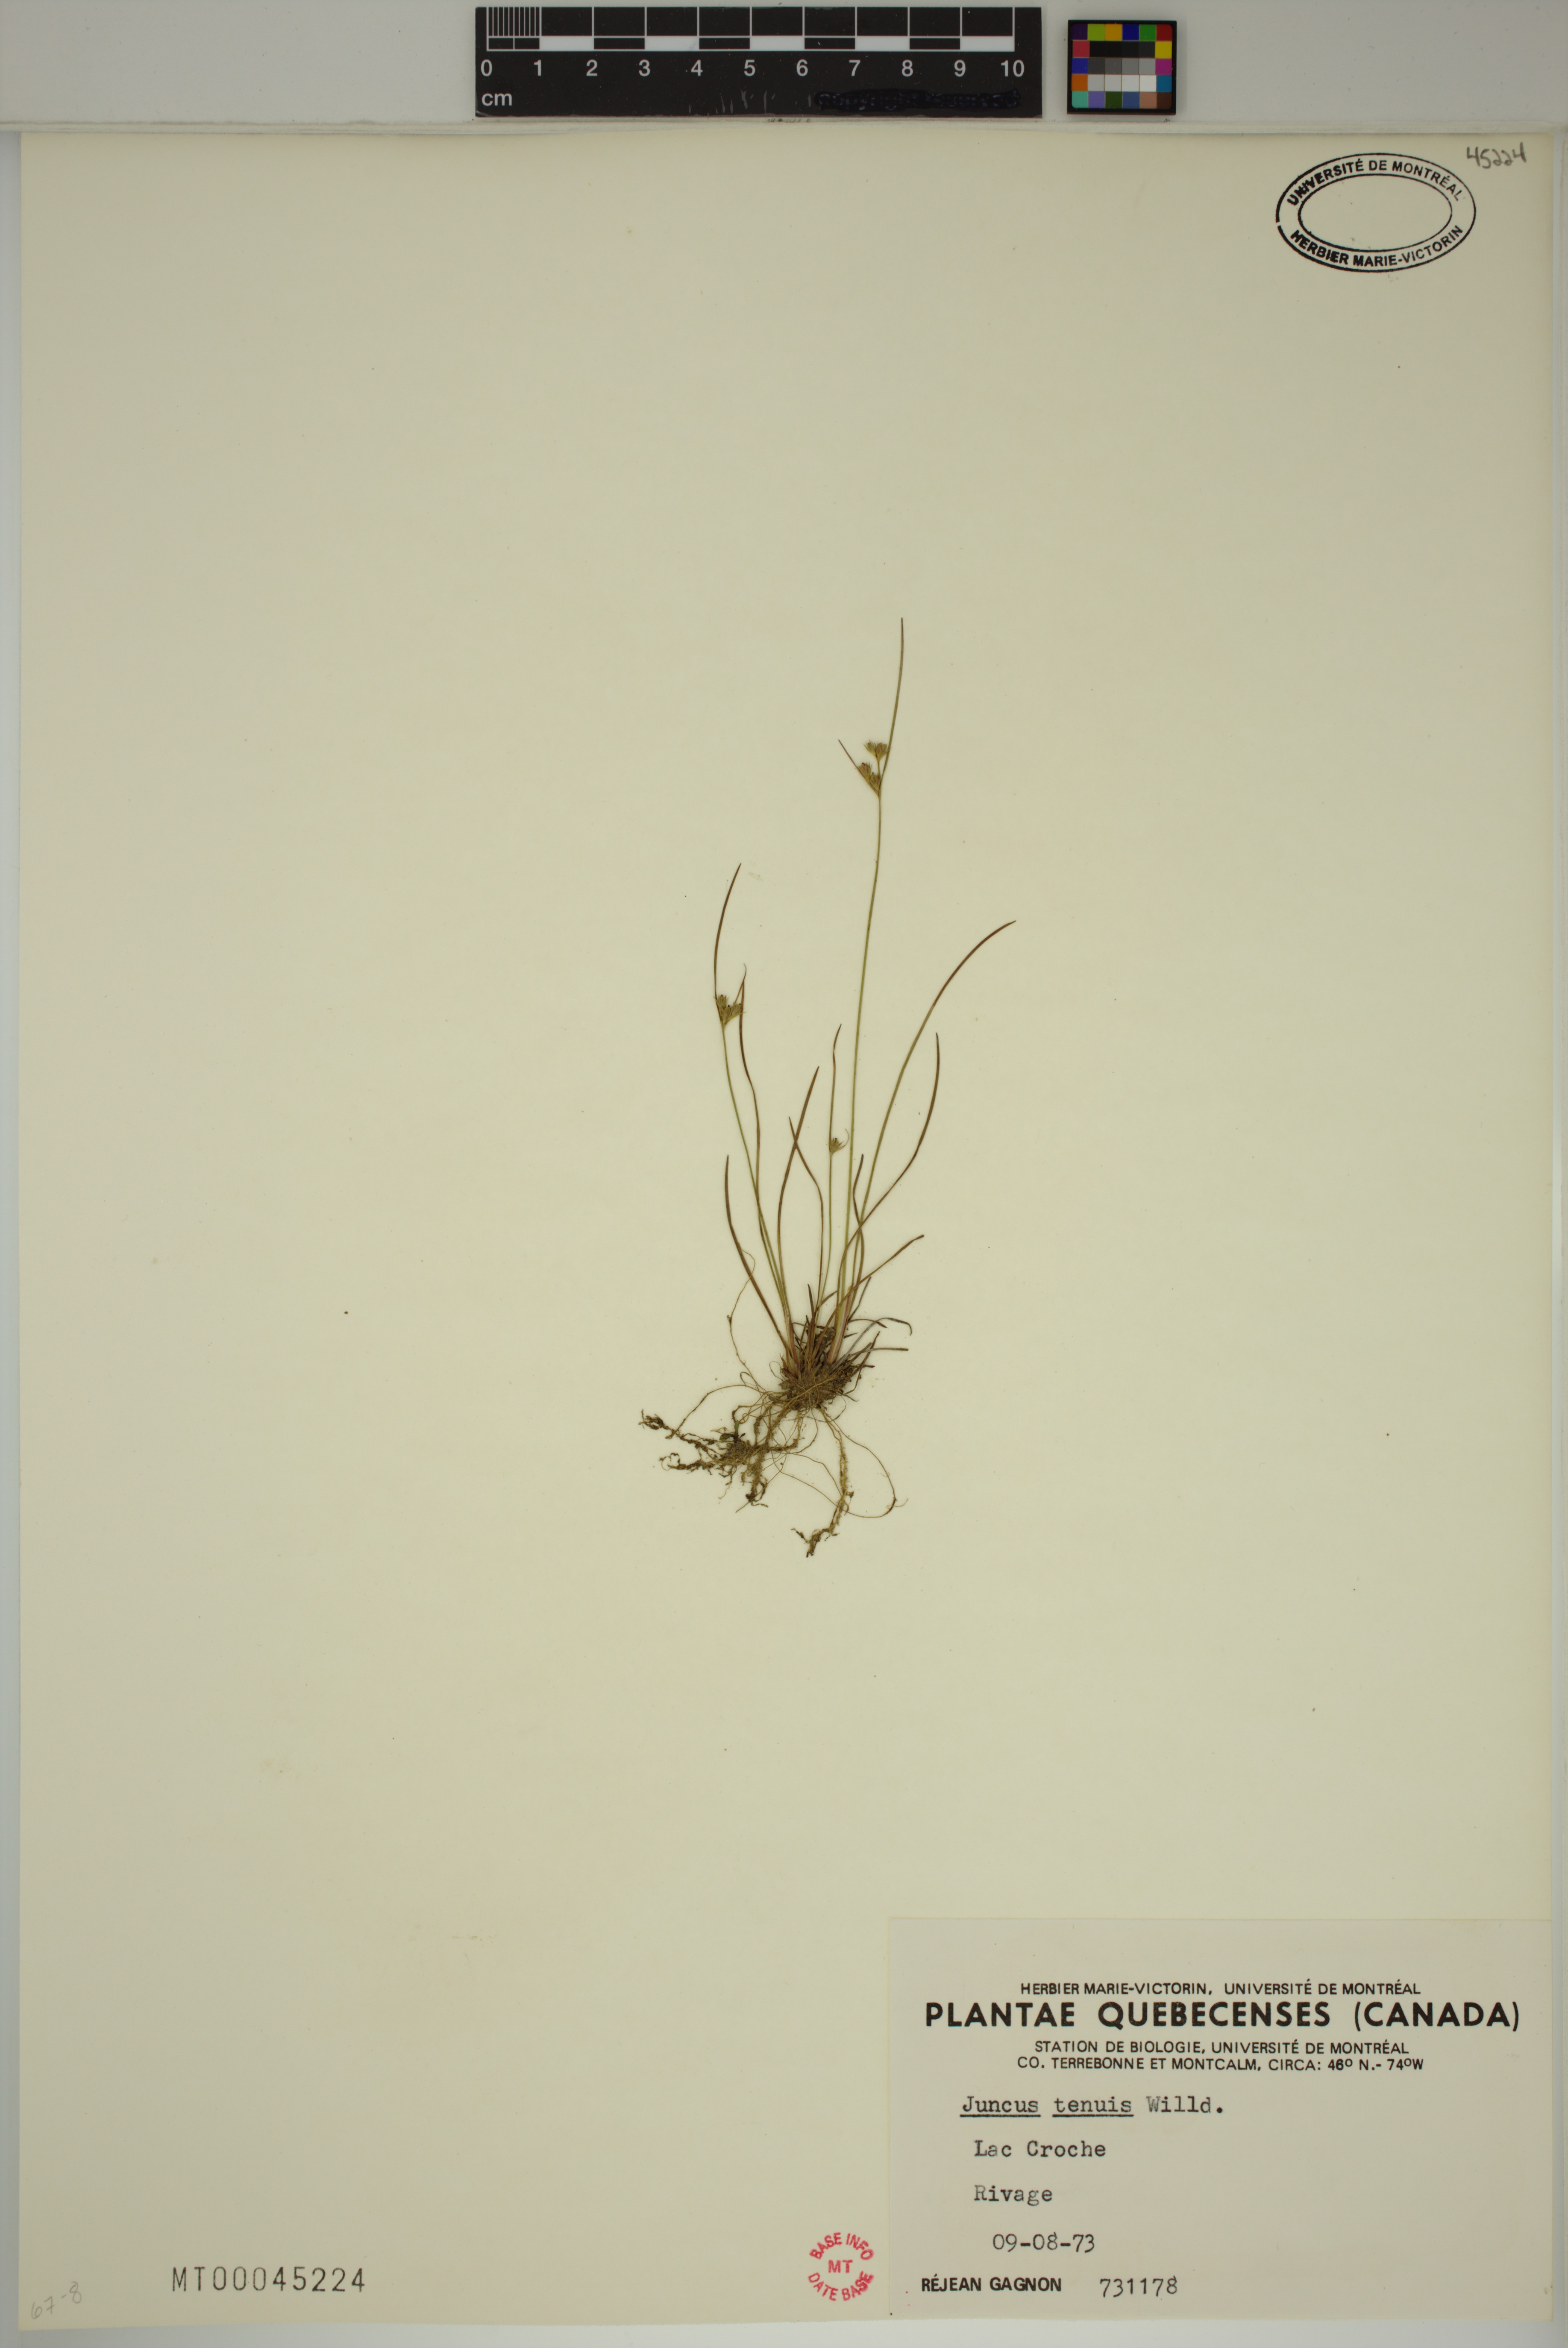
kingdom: Plantae
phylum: Tracheophyta
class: Liliopsida
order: Poales
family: Juncaceae
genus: Juncus
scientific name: Juncus tenuis
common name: Slender rush
